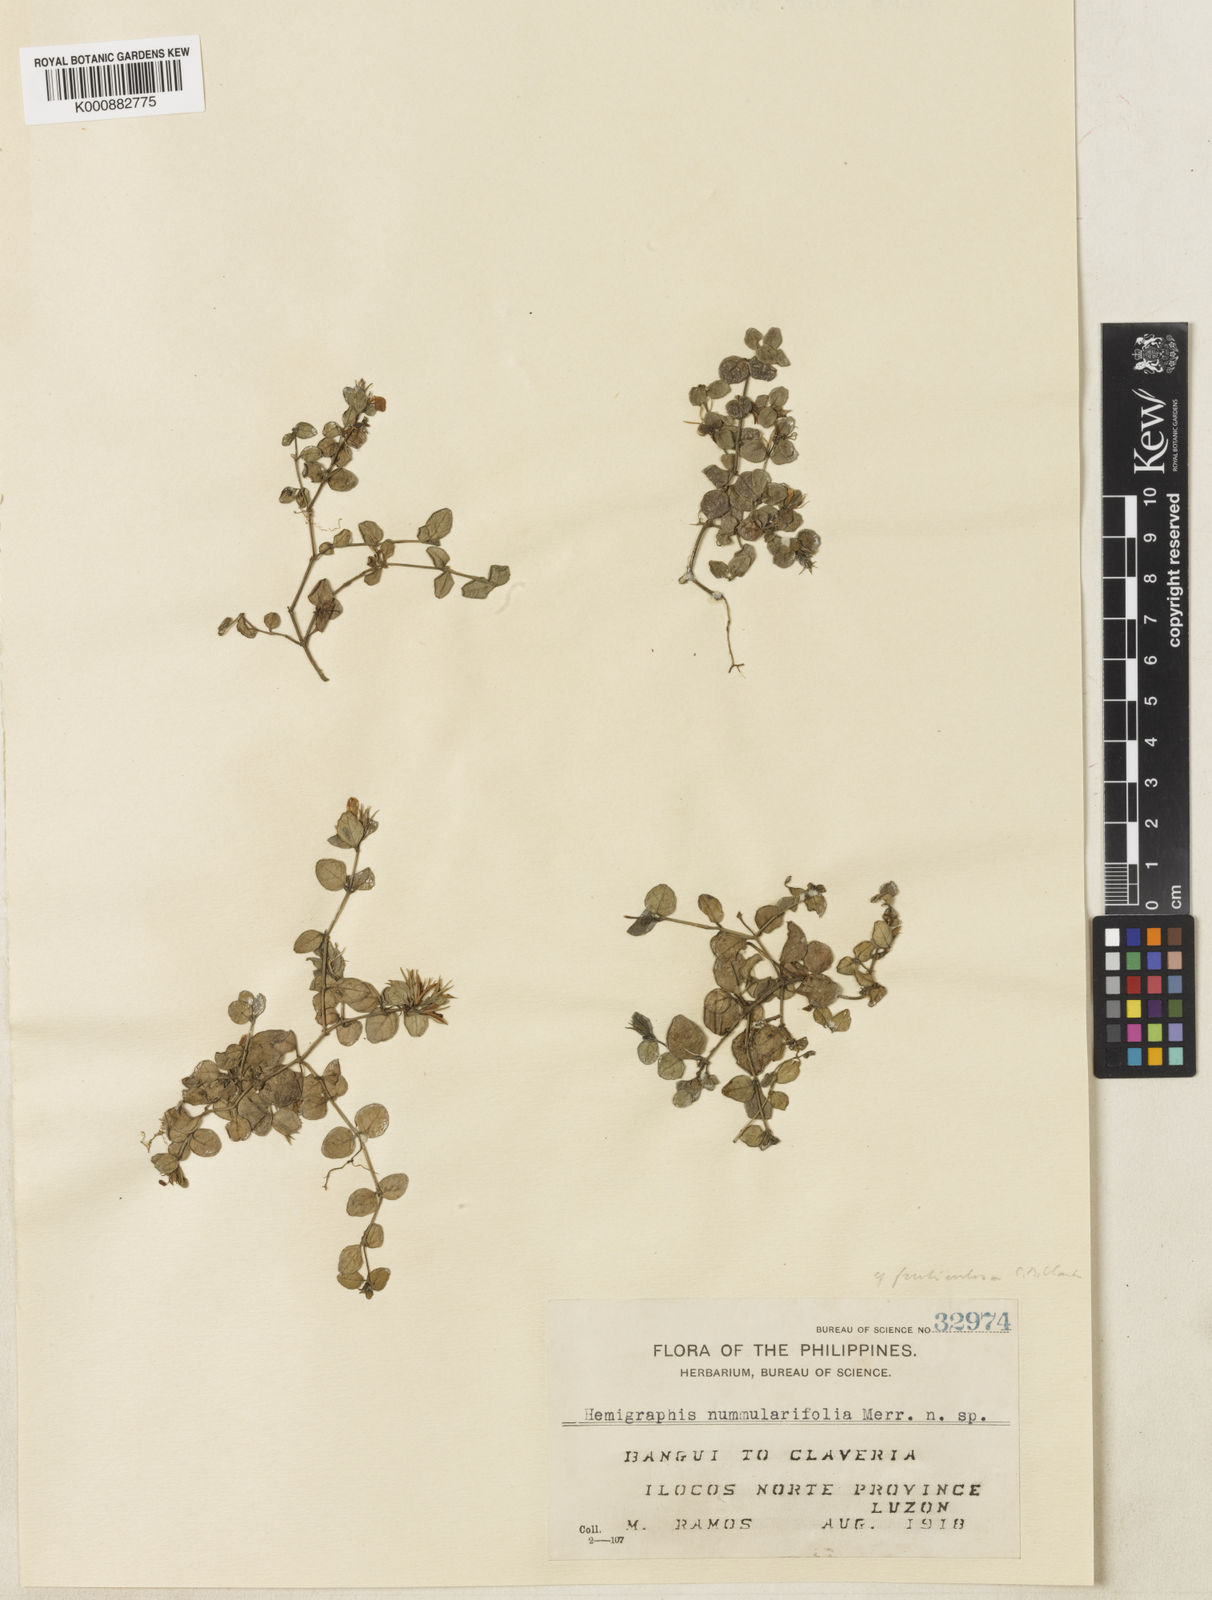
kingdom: Plantae
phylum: Tracheophyta
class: Magnoliopsida
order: Lamiales
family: Acanthaceae
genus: Strobilanthes
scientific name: Strobilanthes fruticulosa
